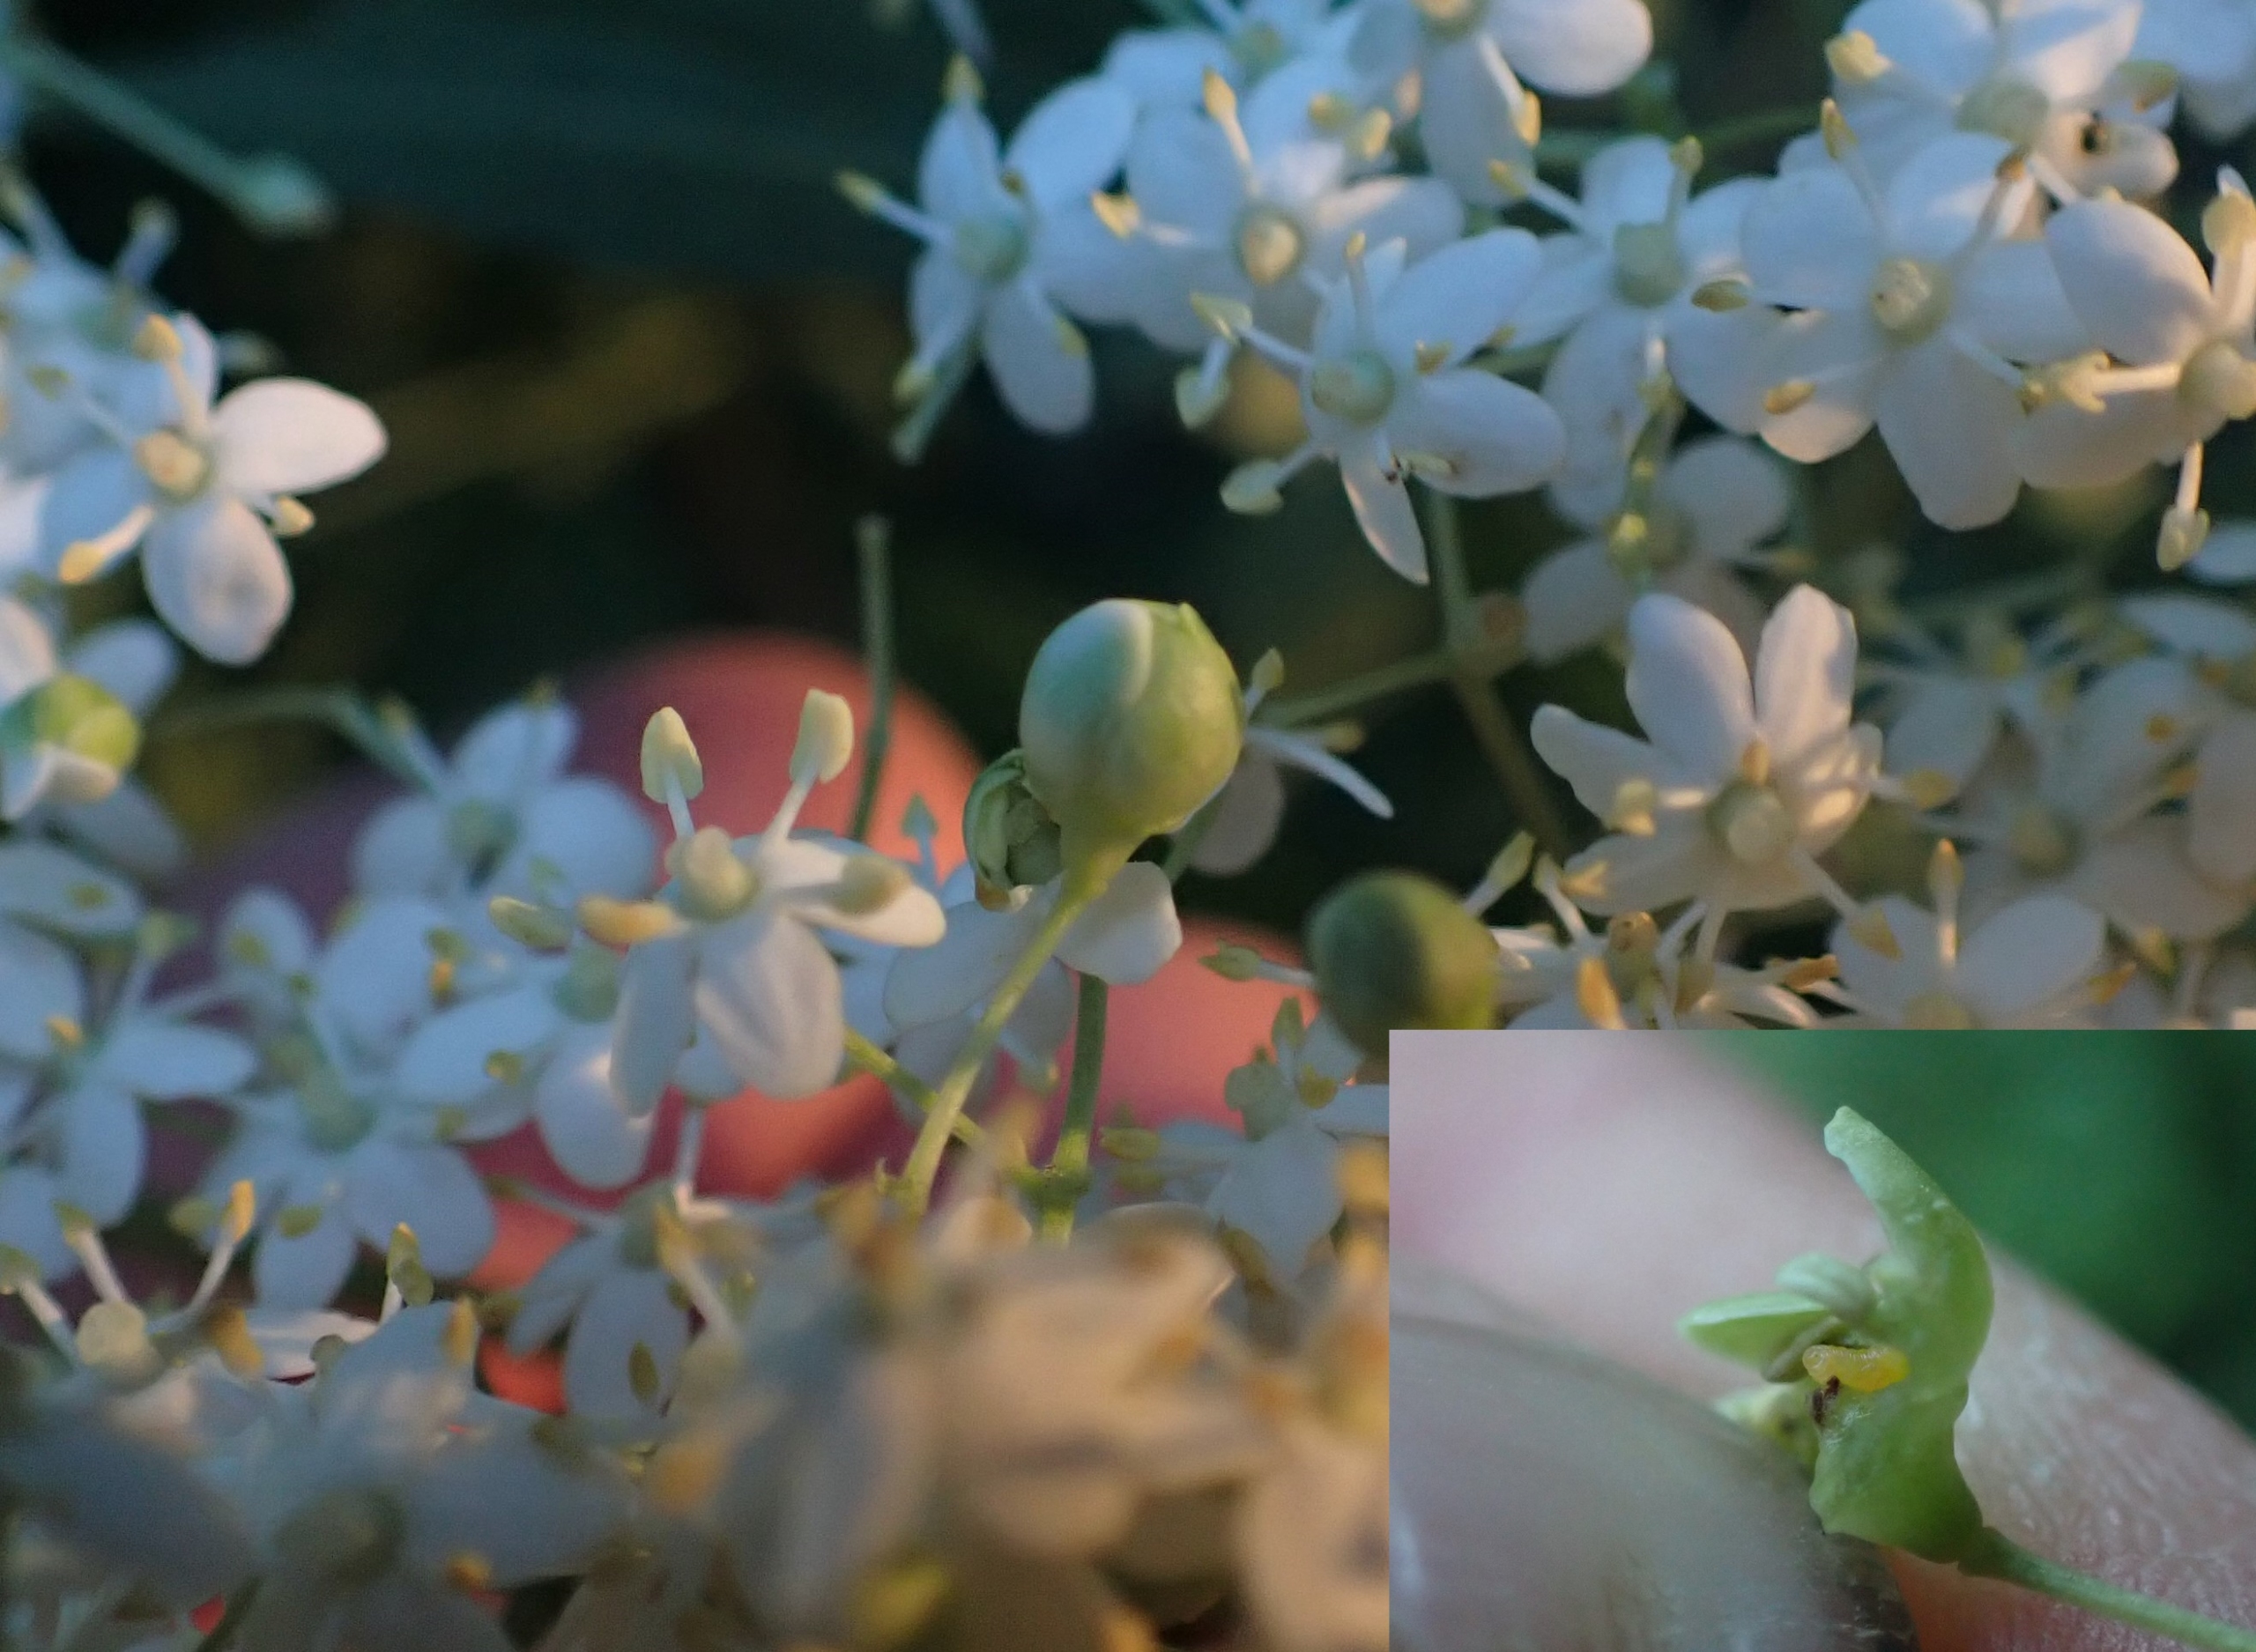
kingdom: Animalia
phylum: Arthropoda
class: Insecta
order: Diptera
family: Cecidomyiidae
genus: Placochela
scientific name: Placochela nigripes
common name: Hyldeblomstgalmyg
